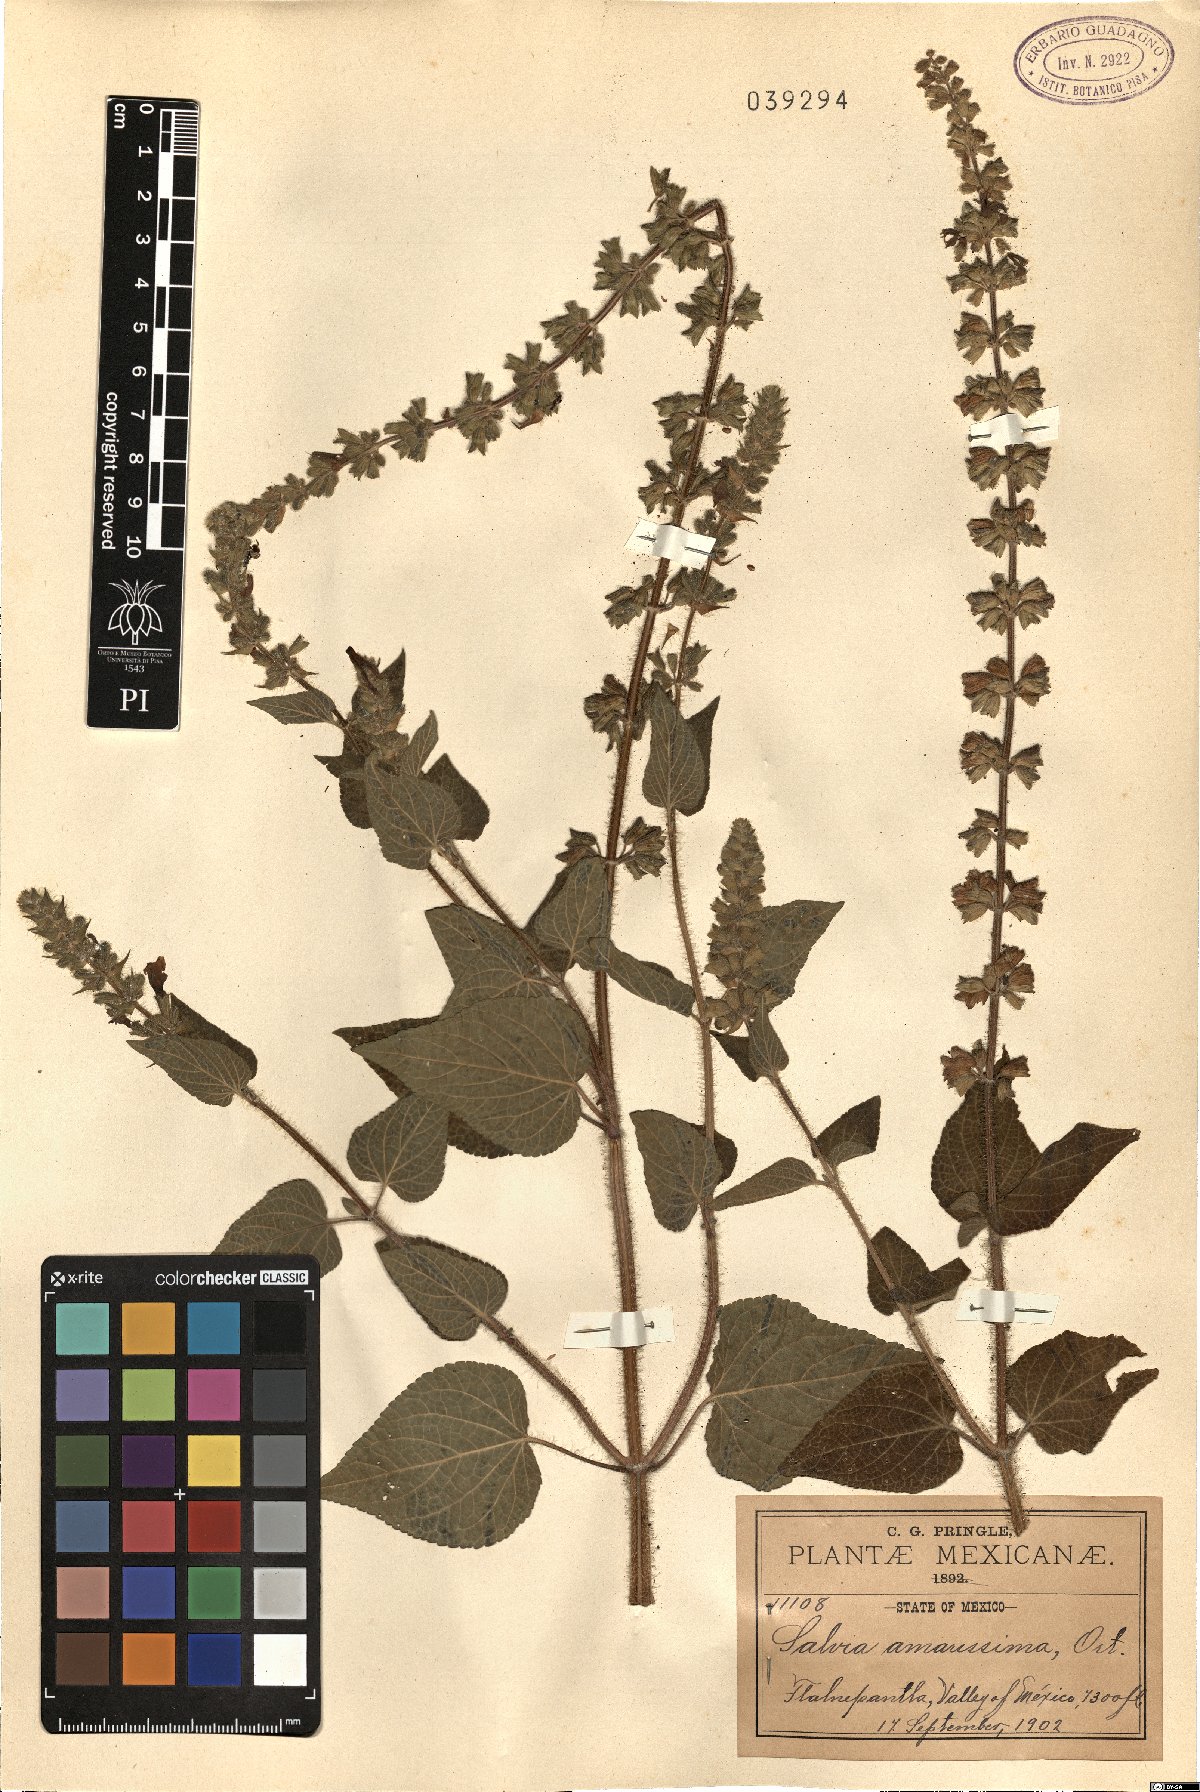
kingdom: Plantae
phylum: Tracheophyta
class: Magnoliopsida
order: Lamiales
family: Lamiaceae
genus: Salvia
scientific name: Salvia circinnata
